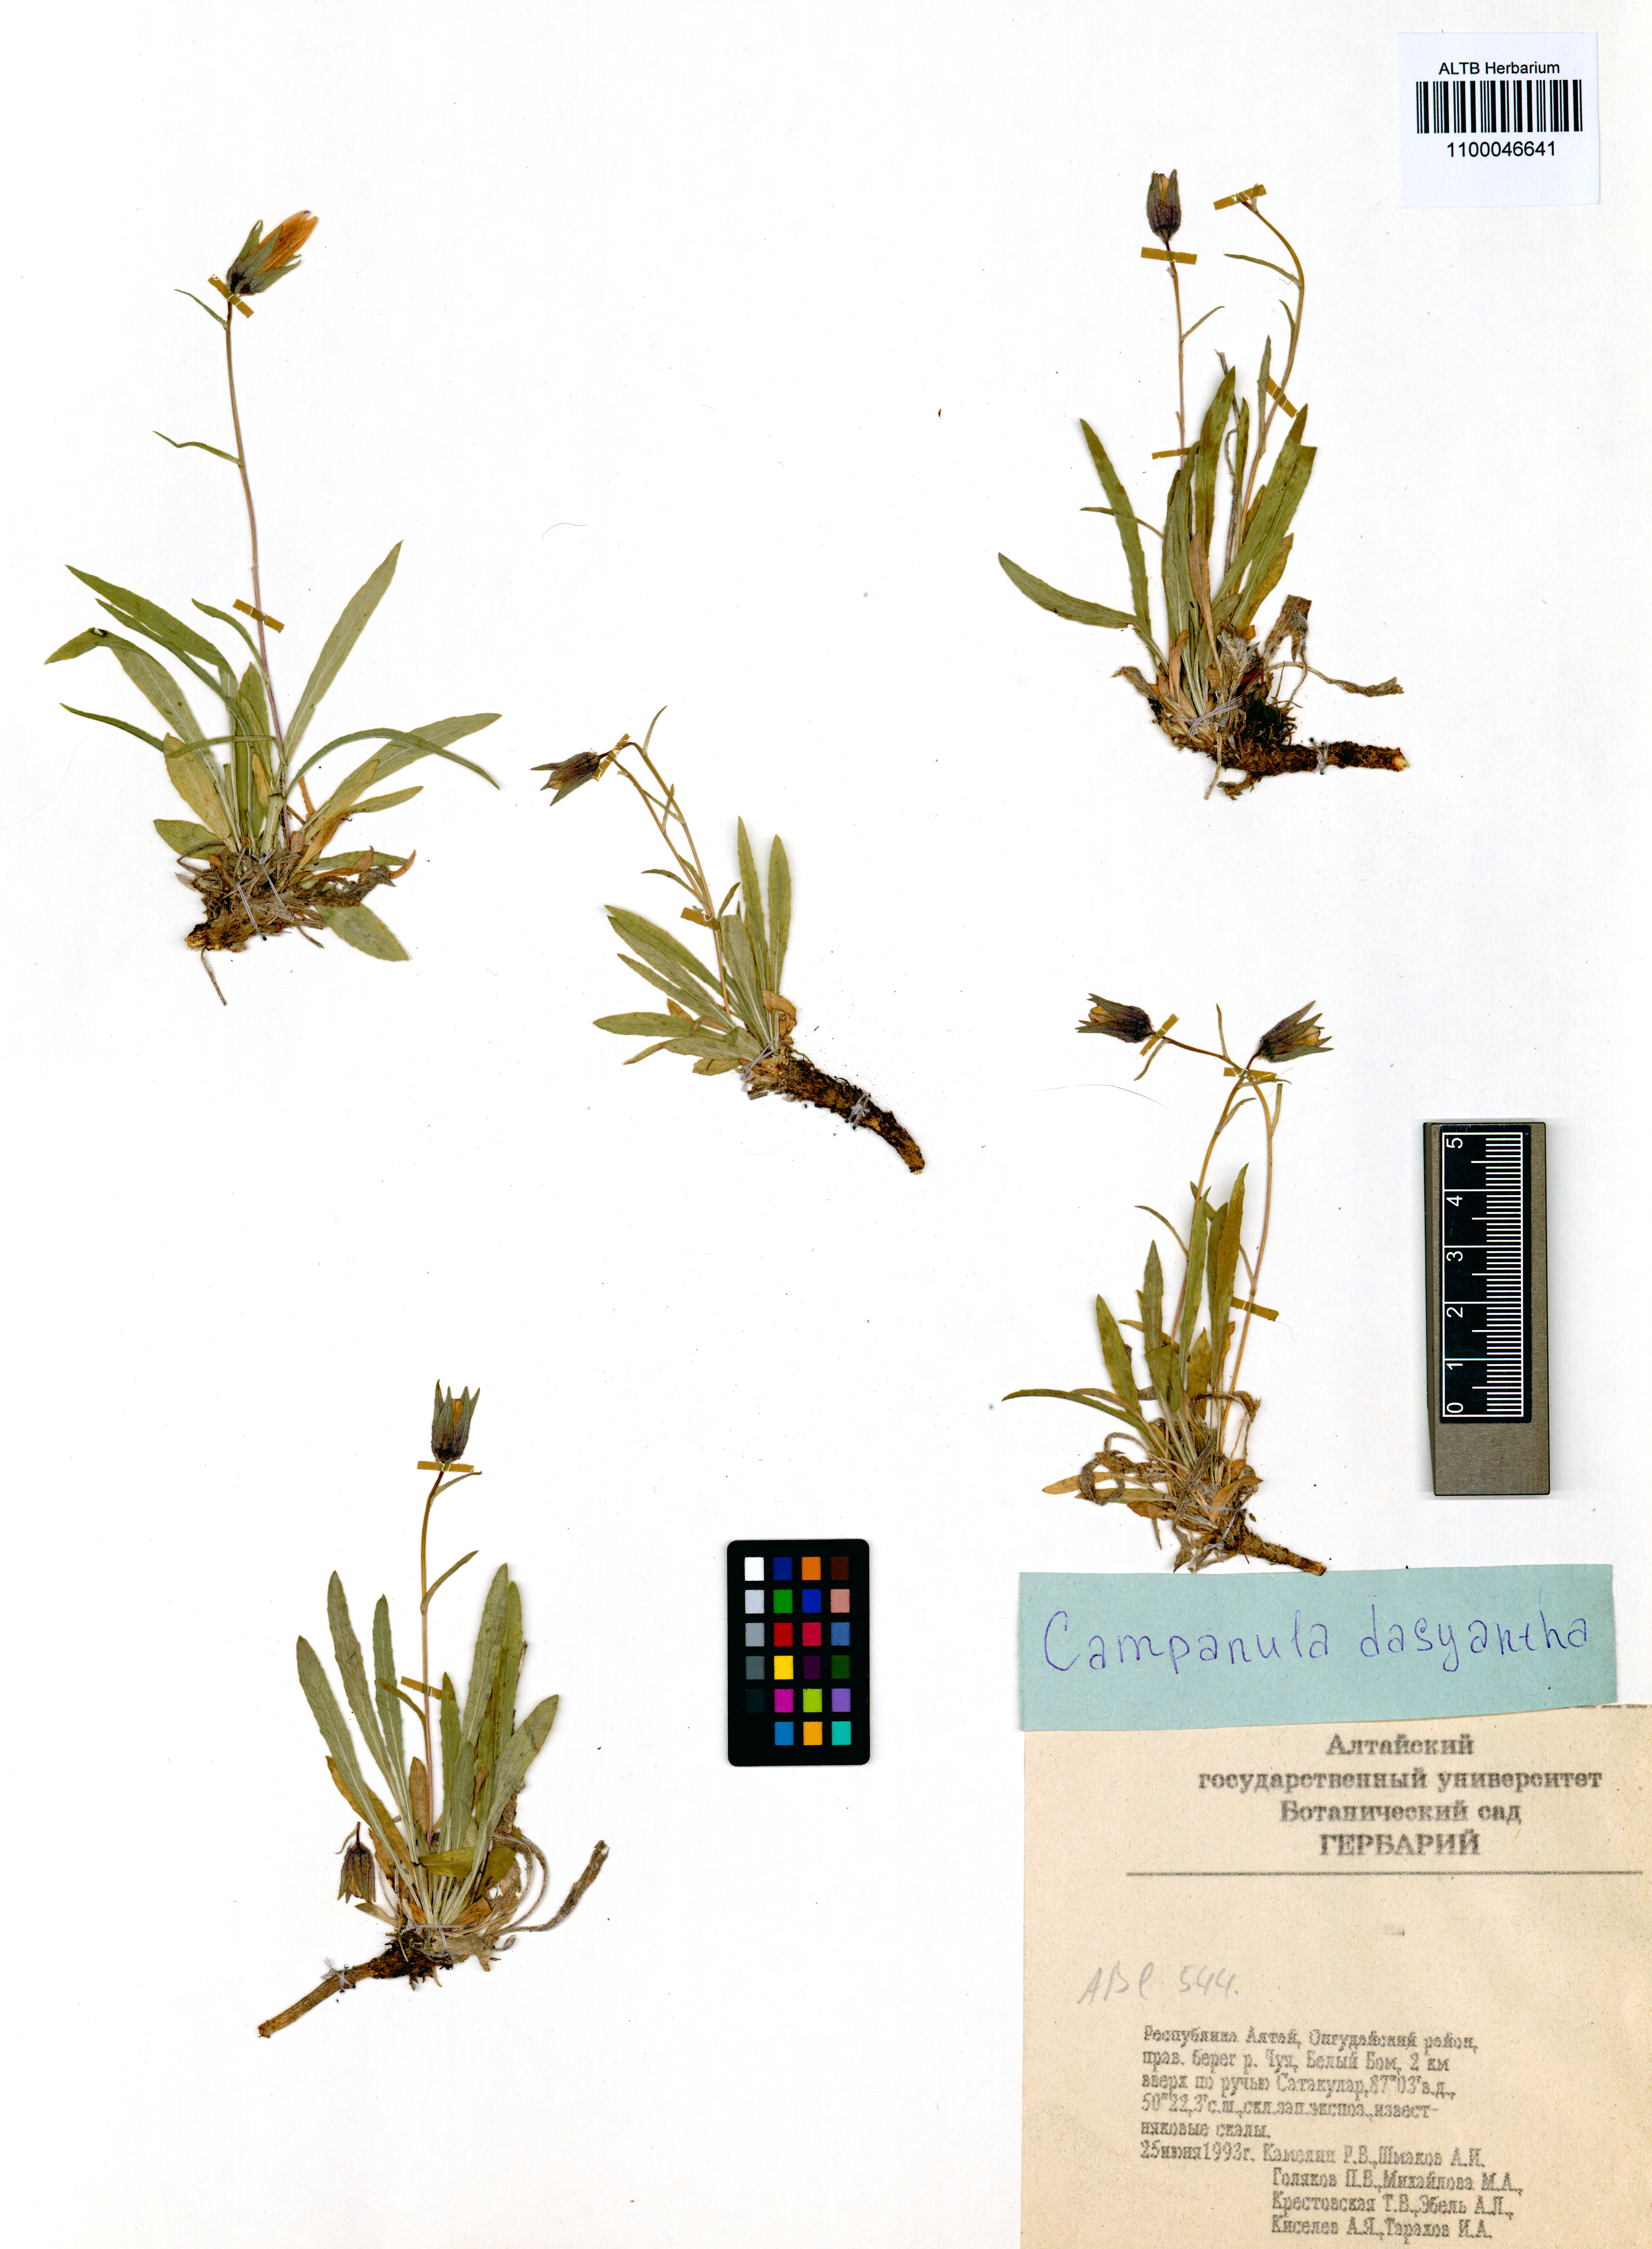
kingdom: Plantae
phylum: Tracheophyta
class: Magnoliopsida
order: Asterales
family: Campanulaceae
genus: Campanula
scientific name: Campanula dasyantha
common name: Hairyflower bellflower
